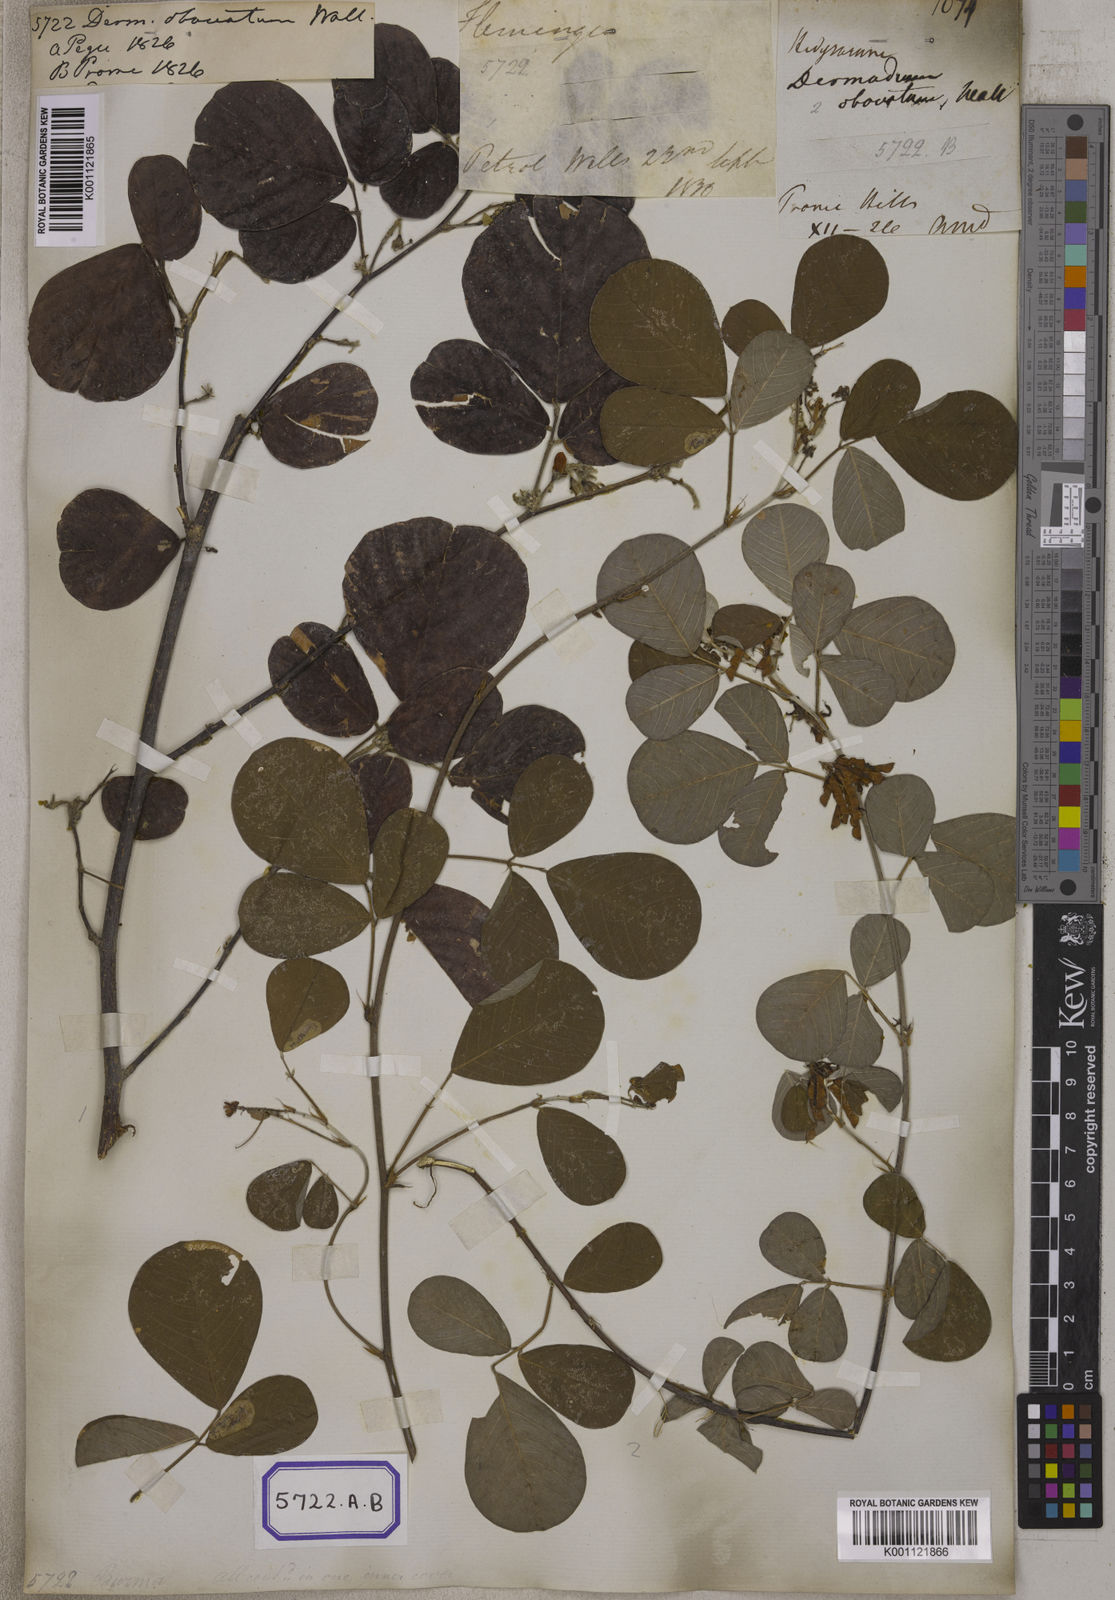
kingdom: Plantae
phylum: Tracheophyta
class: Magnoliopsida
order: Fabales
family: Fabaceae
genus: Desmodium
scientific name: Desmodium
